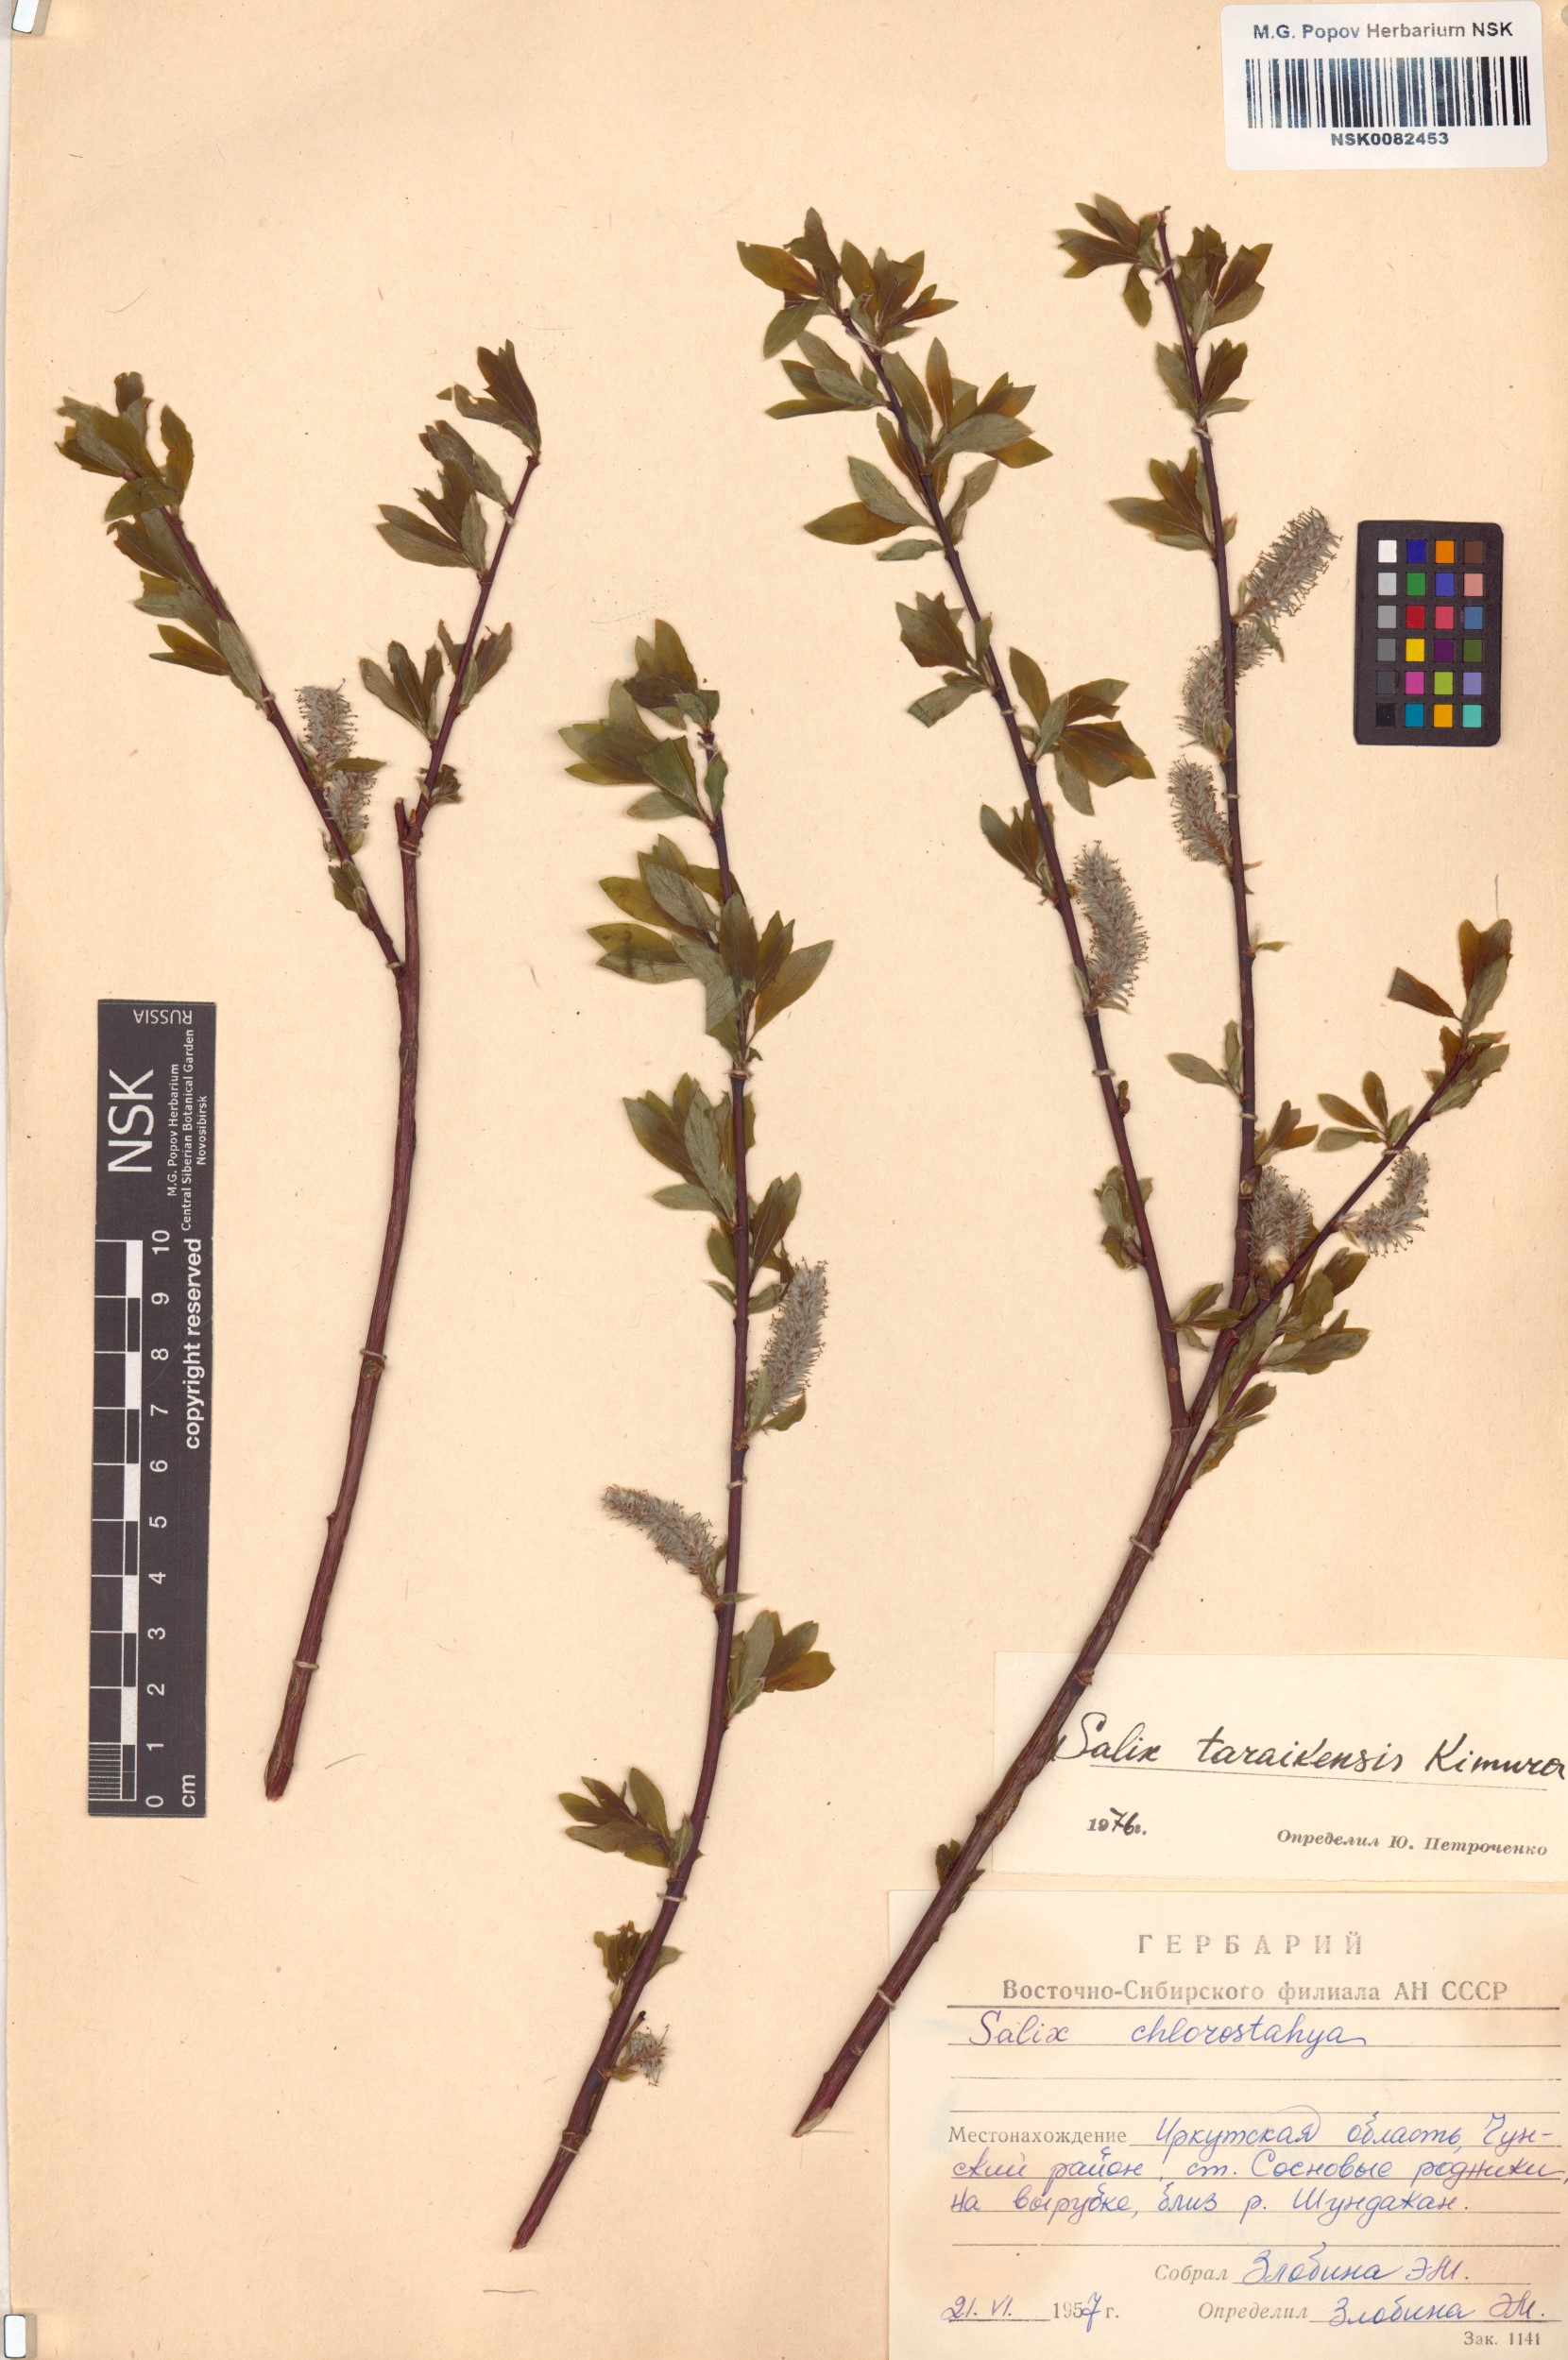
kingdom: Plantae
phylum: Tracheophyta
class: Magnoliopsida
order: Malpighiales
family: Salicaceae
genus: Salix
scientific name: Salix taraikensis
